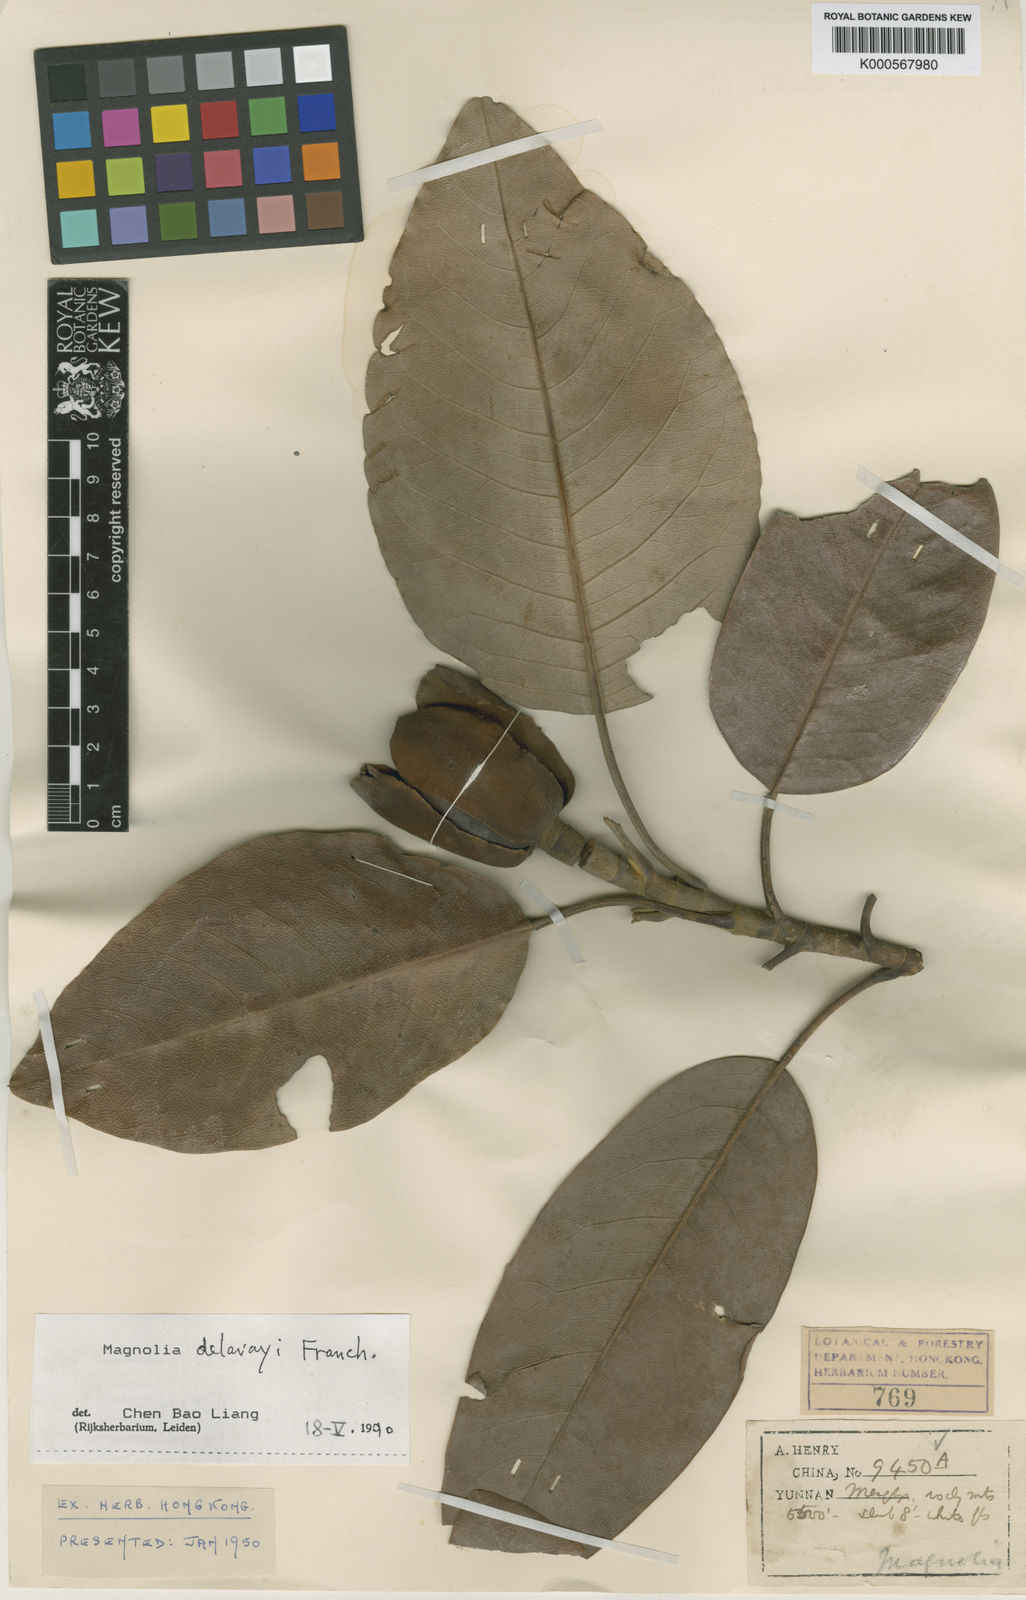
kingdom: Plantae
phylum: Tracheophyta
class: Magnoliopsida
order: Magnoliales
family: Magnoliaceae
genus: Magnolia
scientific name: Magnolia delavayi
